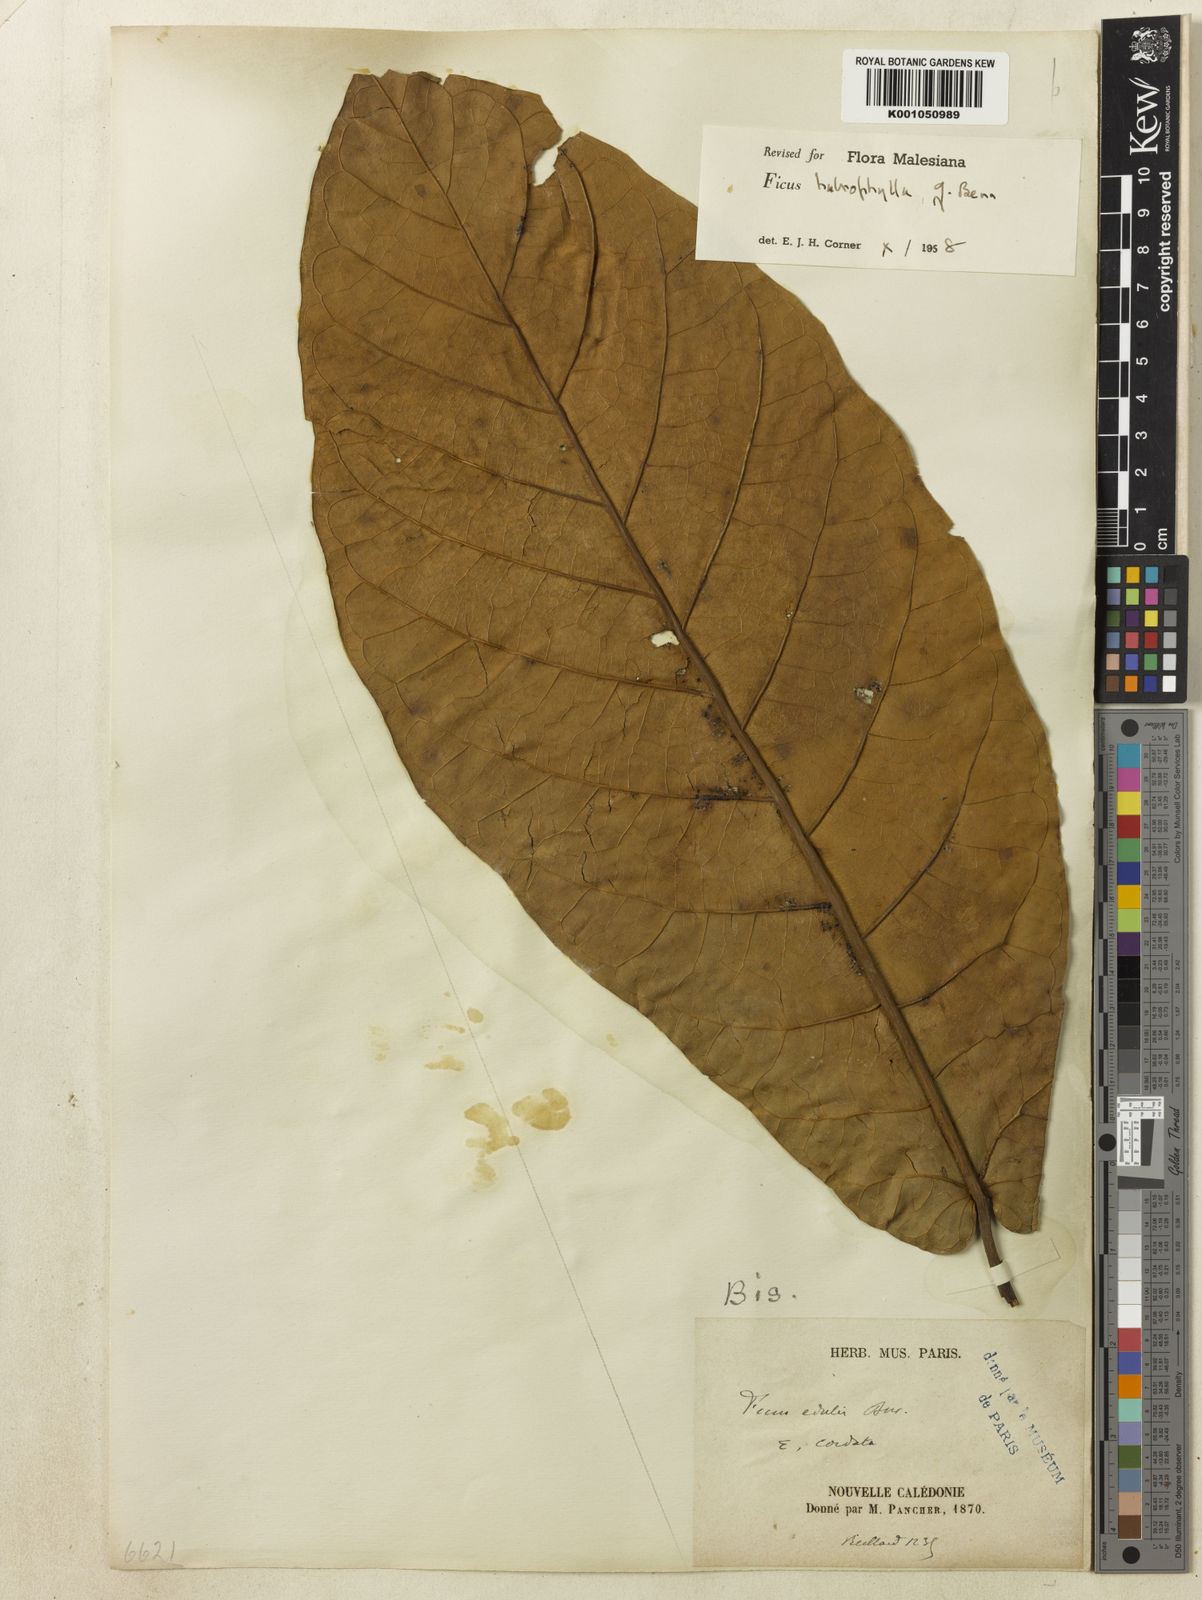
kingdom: Plantae
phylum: Tracheophyta
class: Magnoliopsida
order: Rosales
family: Moraceae
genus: Ficus
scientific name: Ficus
